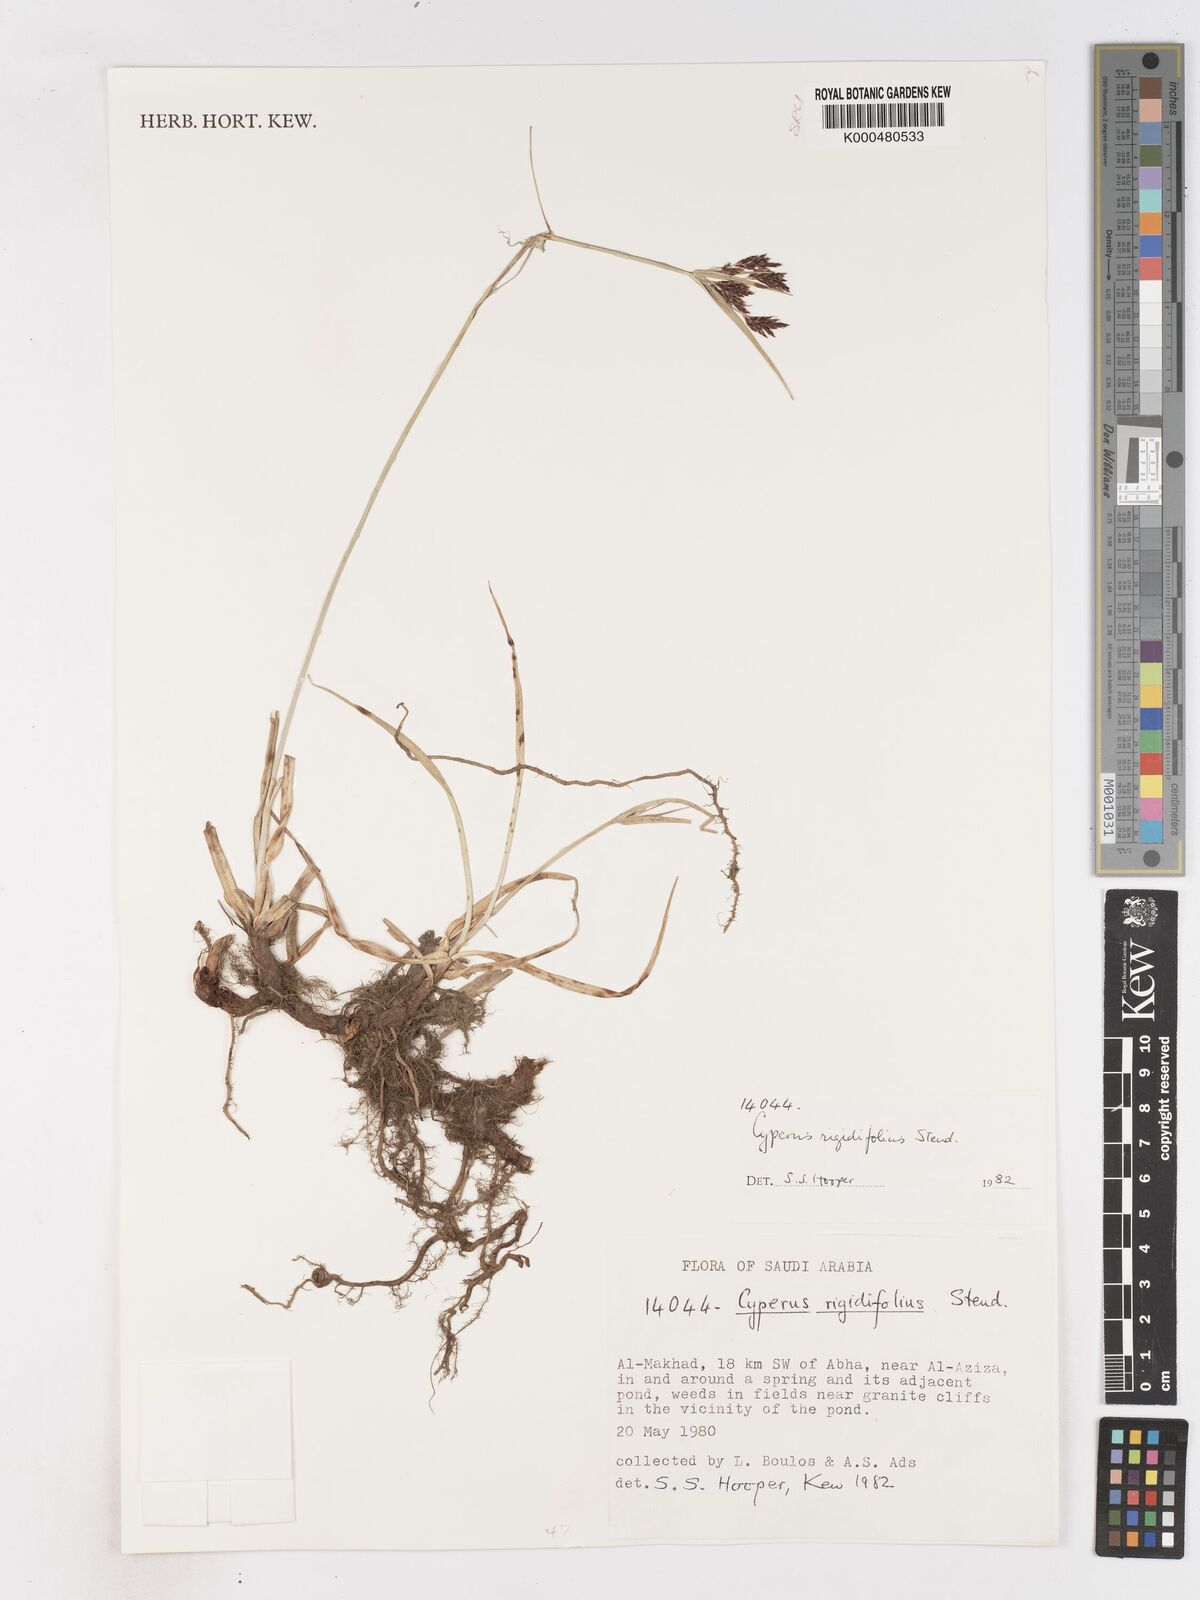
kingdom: Plantae
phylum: Tracheophyta
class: Liliopsida
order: Poales
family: Cyperaceae
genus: Cyperus
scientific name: Cyperus rigidifolius
